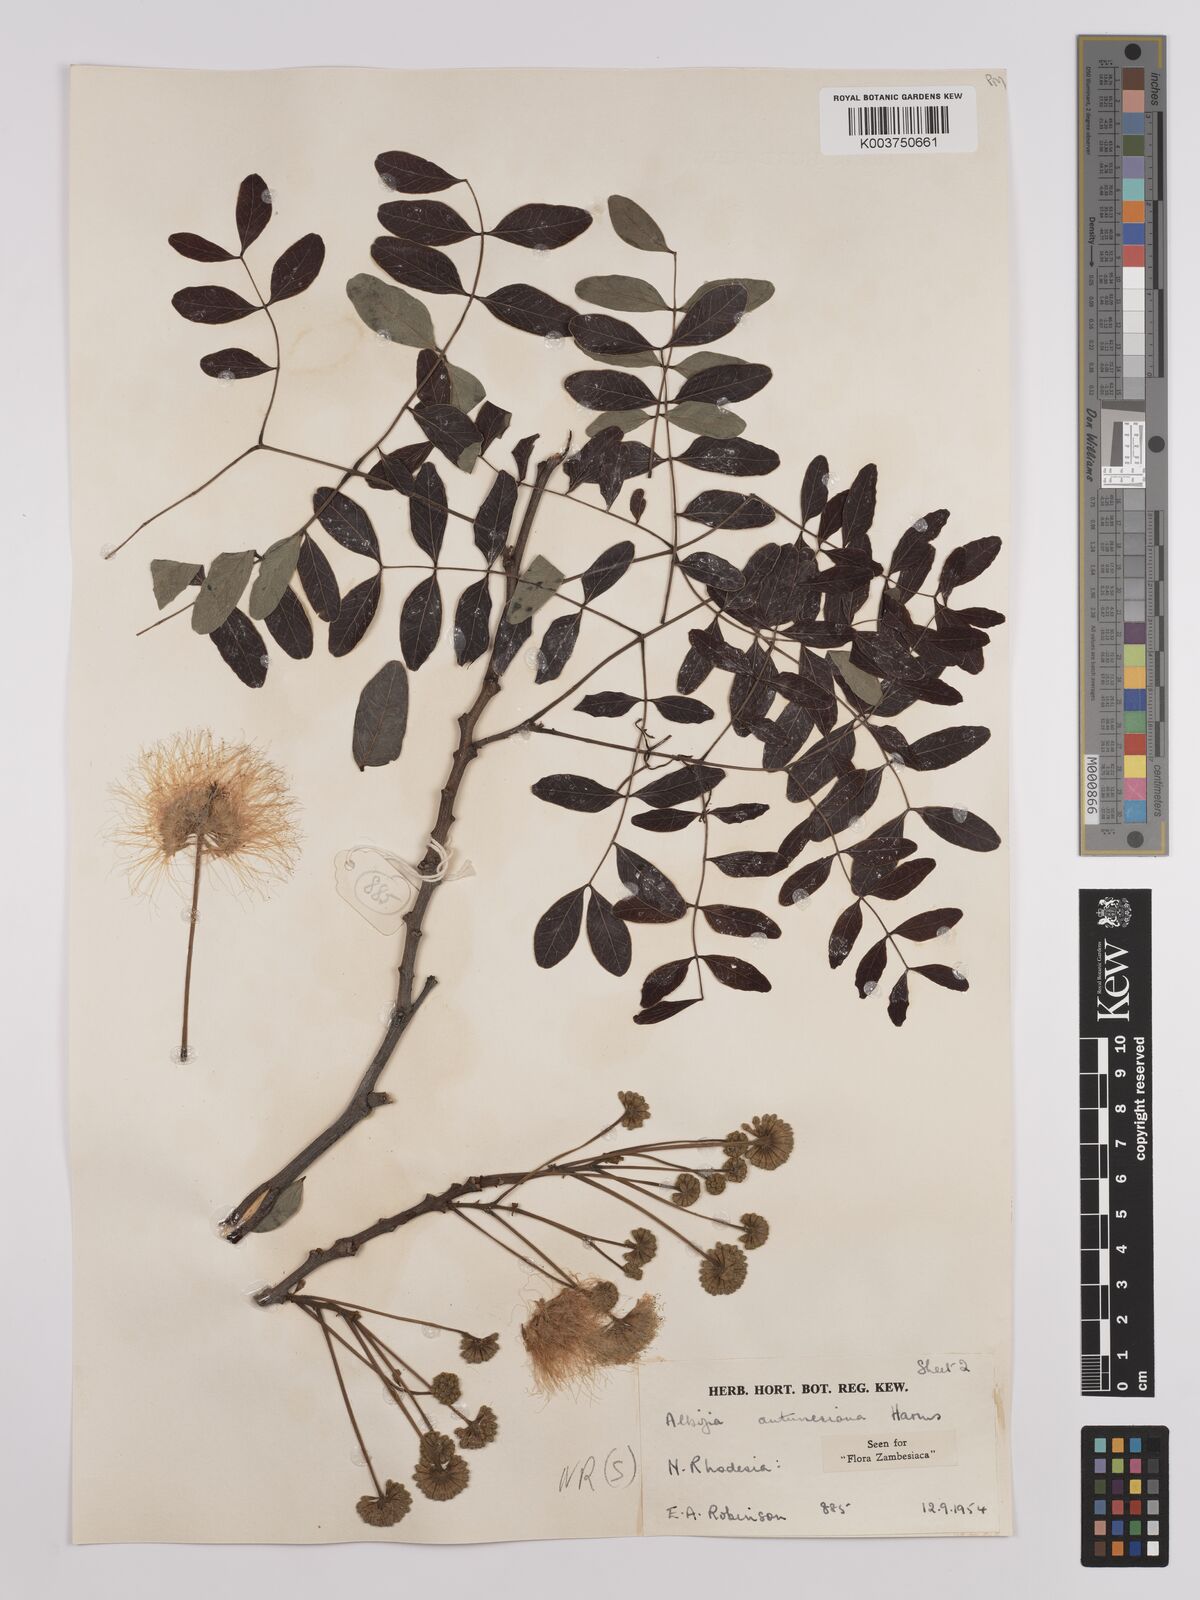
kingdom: Plantae
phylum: Tracheophyta
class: Magnoliopsida
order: Fabales
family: Fabaceae
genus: Albizia
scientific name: Albizia antunesiana
